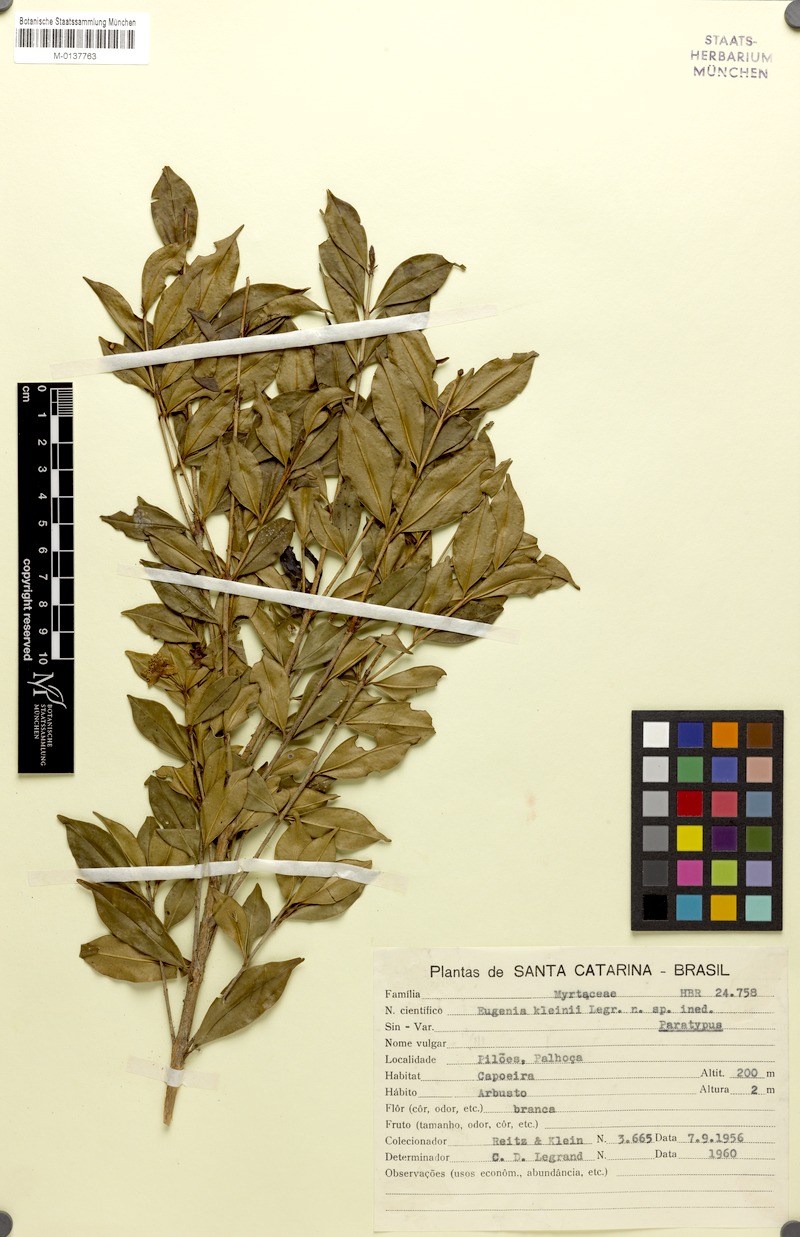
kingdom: Plantae
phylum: Tracheophyta
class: Magnoliopsida
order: Myrtales
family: Myrtaceae
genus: Eugenia
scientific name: Eugenia kleinii
